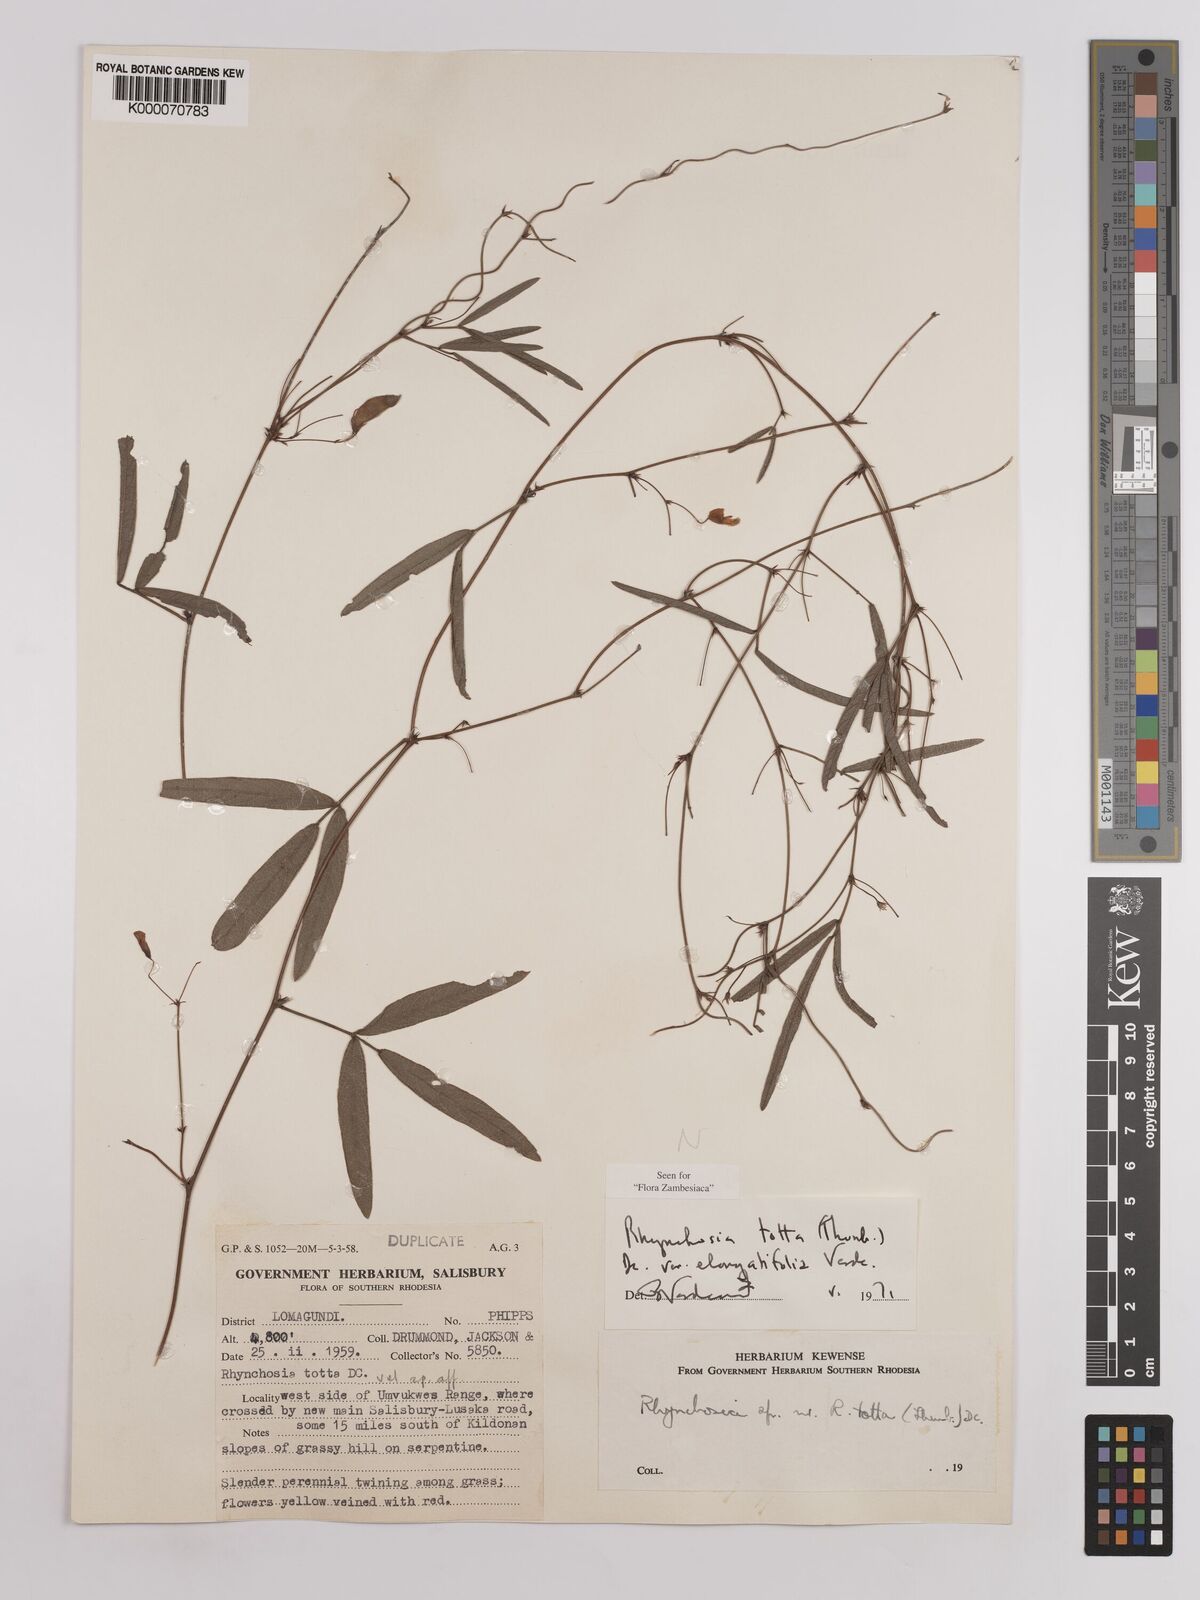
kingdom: Plantae
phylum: Tracheophyta
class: Magnoliopsida
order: Fabales
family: Fabaceae
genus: Rhynchosia
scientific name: Rhynchosia totta
